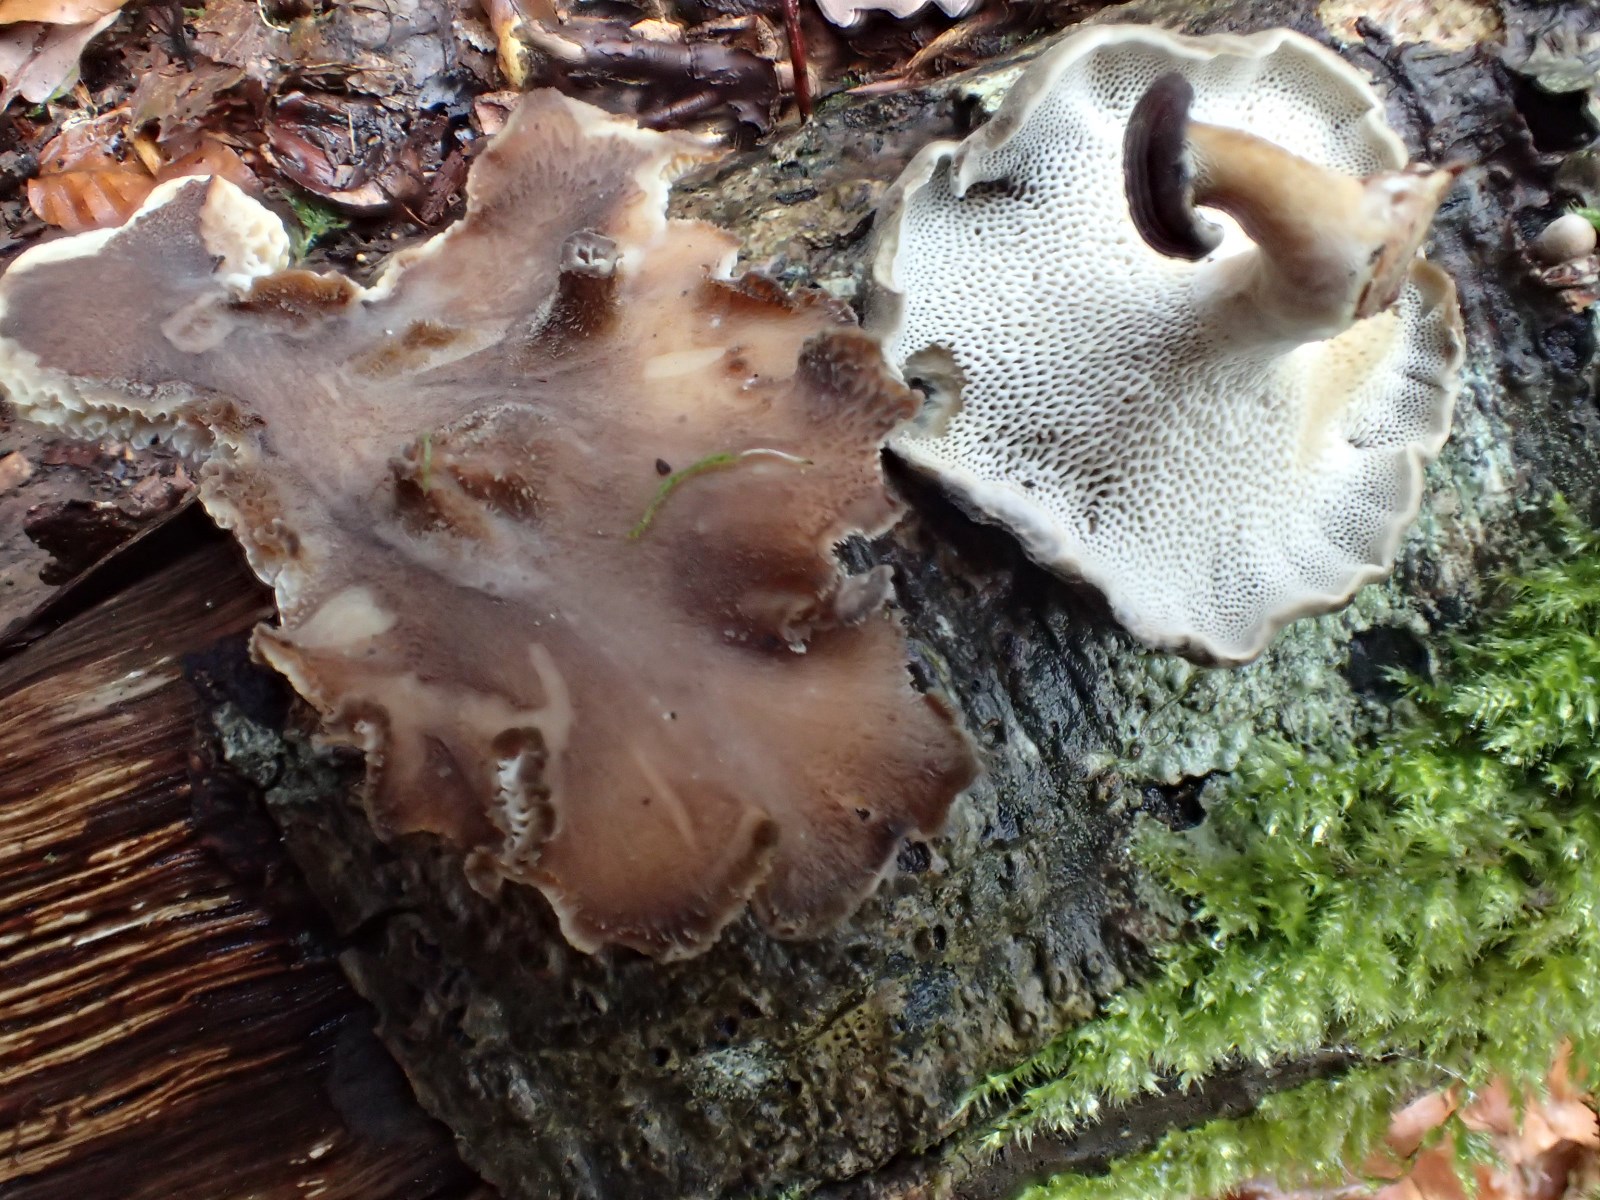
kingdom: Fungi
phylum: Basidiomycota
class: Agaricomycetes
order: Polyporales
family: Polyporaceae
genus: Lentinus
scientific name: Lentinus brumalis
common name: vinter-stilkporesvamp
